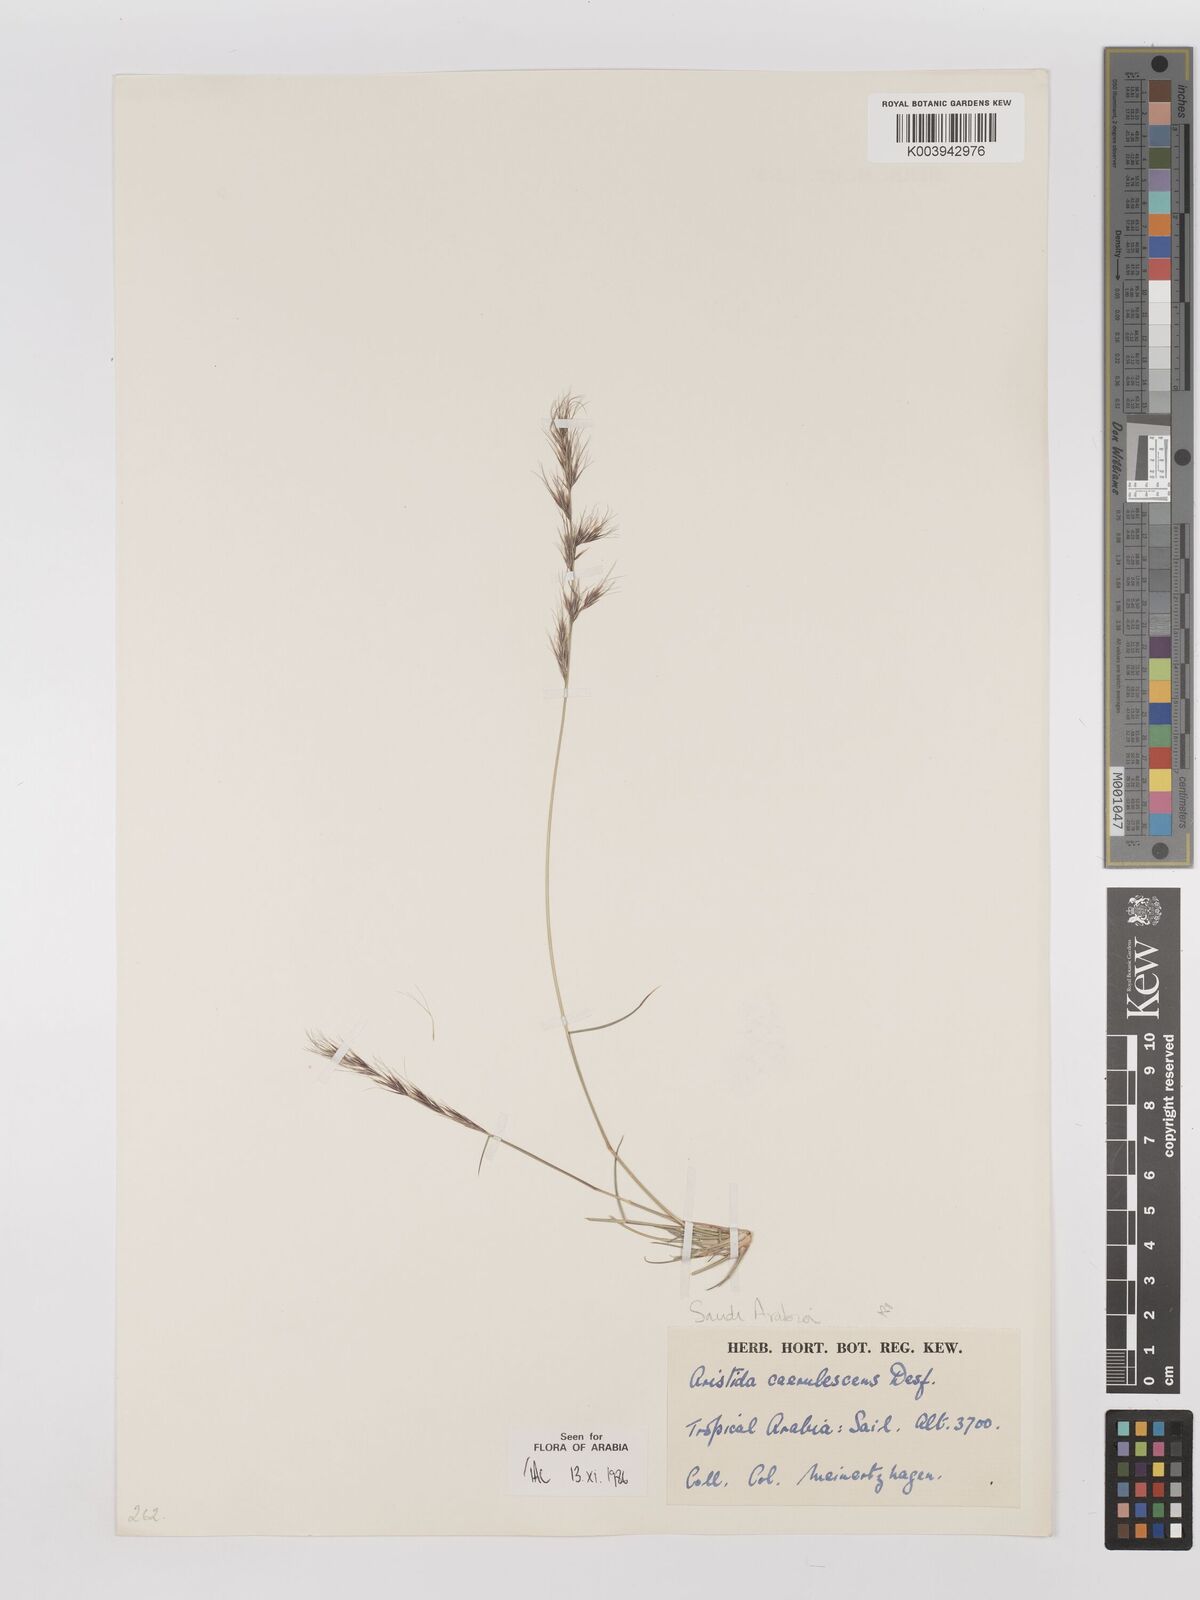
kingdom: Plantae
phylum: Tracheophyta
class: Liliopsida
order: Poales
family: Poaceae
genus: Aristida
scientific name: Aristida adscensionis
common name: Sixweeks threeawn
